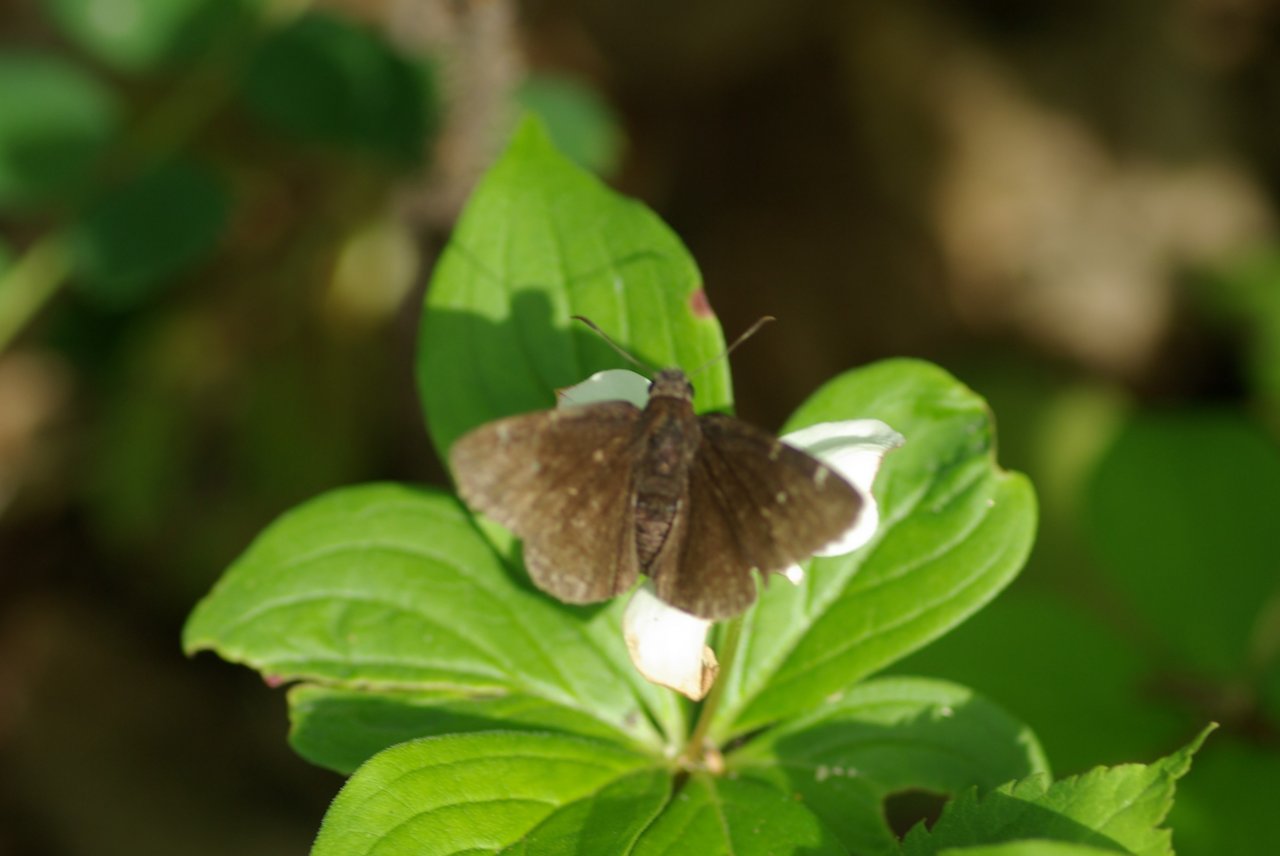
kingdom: Animalia
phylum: Arthropoda
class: Insecta
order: Lepidoptera
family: Hesperiidae
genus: Autochton
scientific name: Autochton
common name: Northern Cloudywing
